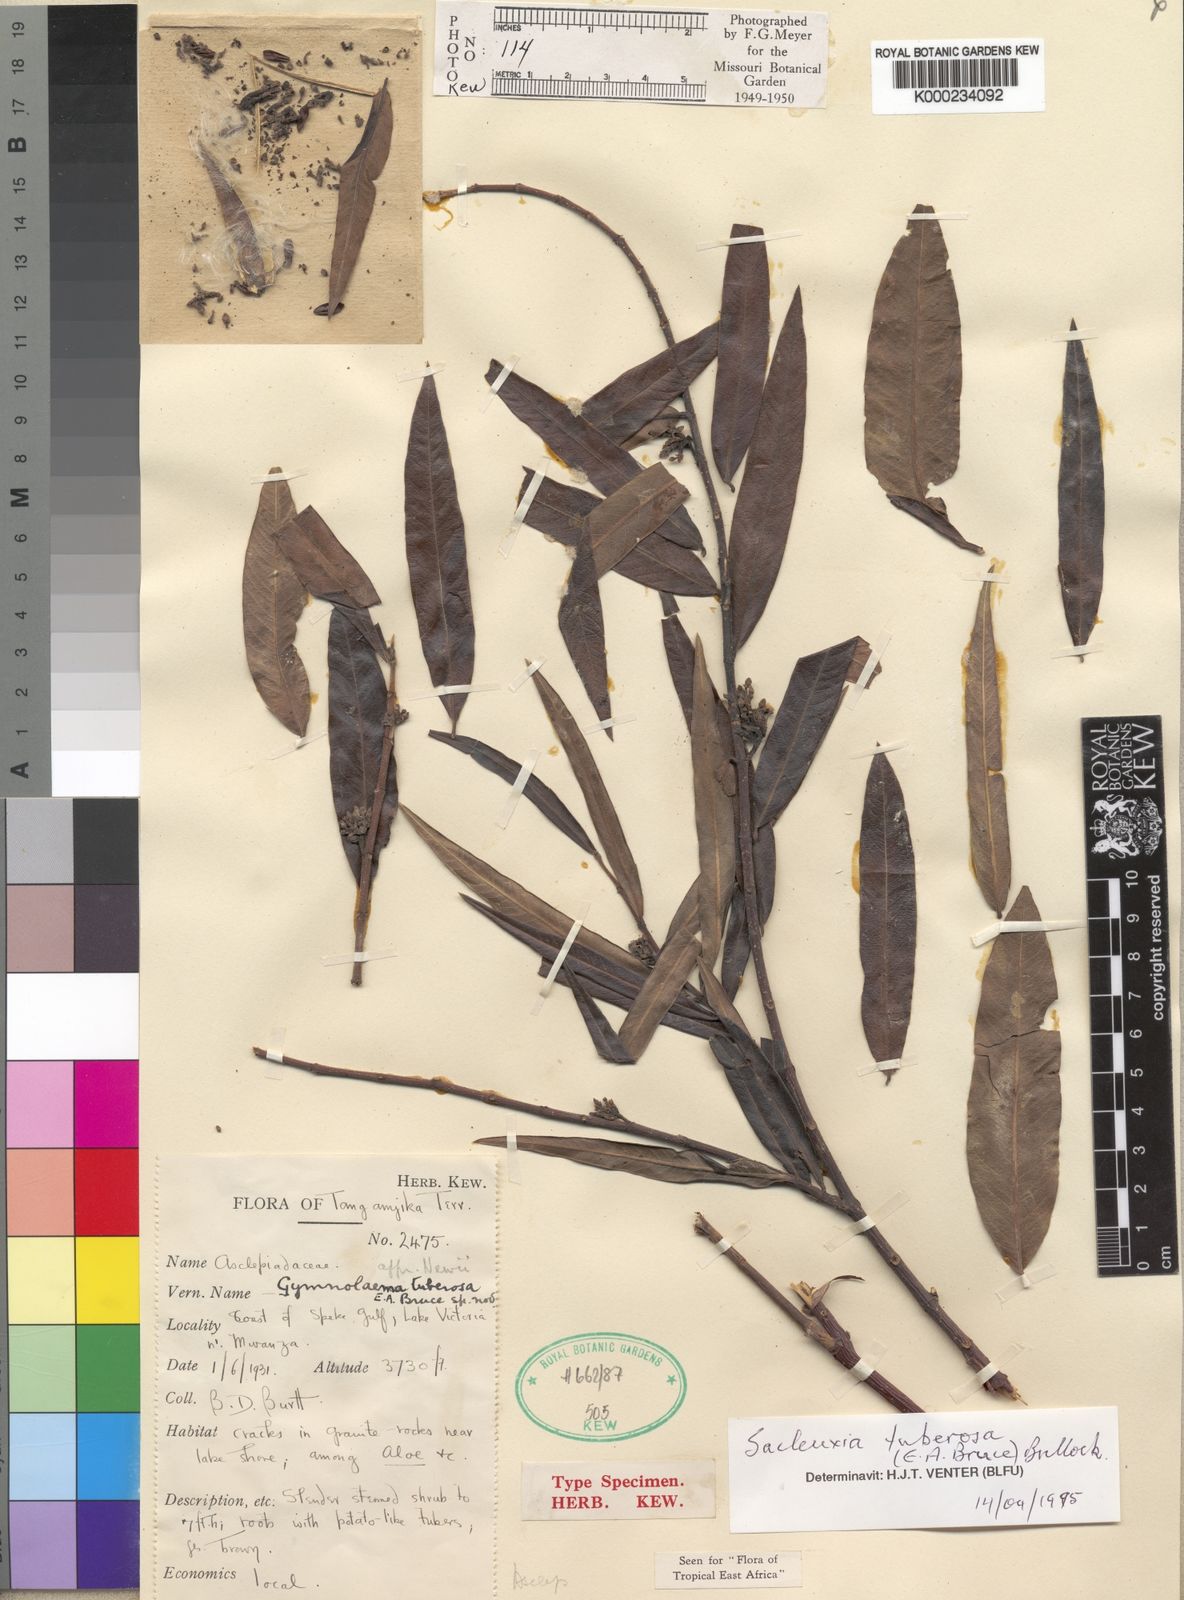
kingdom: Plantae
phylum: Tracheophyta
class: Magnoliopsida
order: Gentianales
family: Apocynaceae
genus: Gymnolaema
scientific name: Gymnolaema tuberosa
